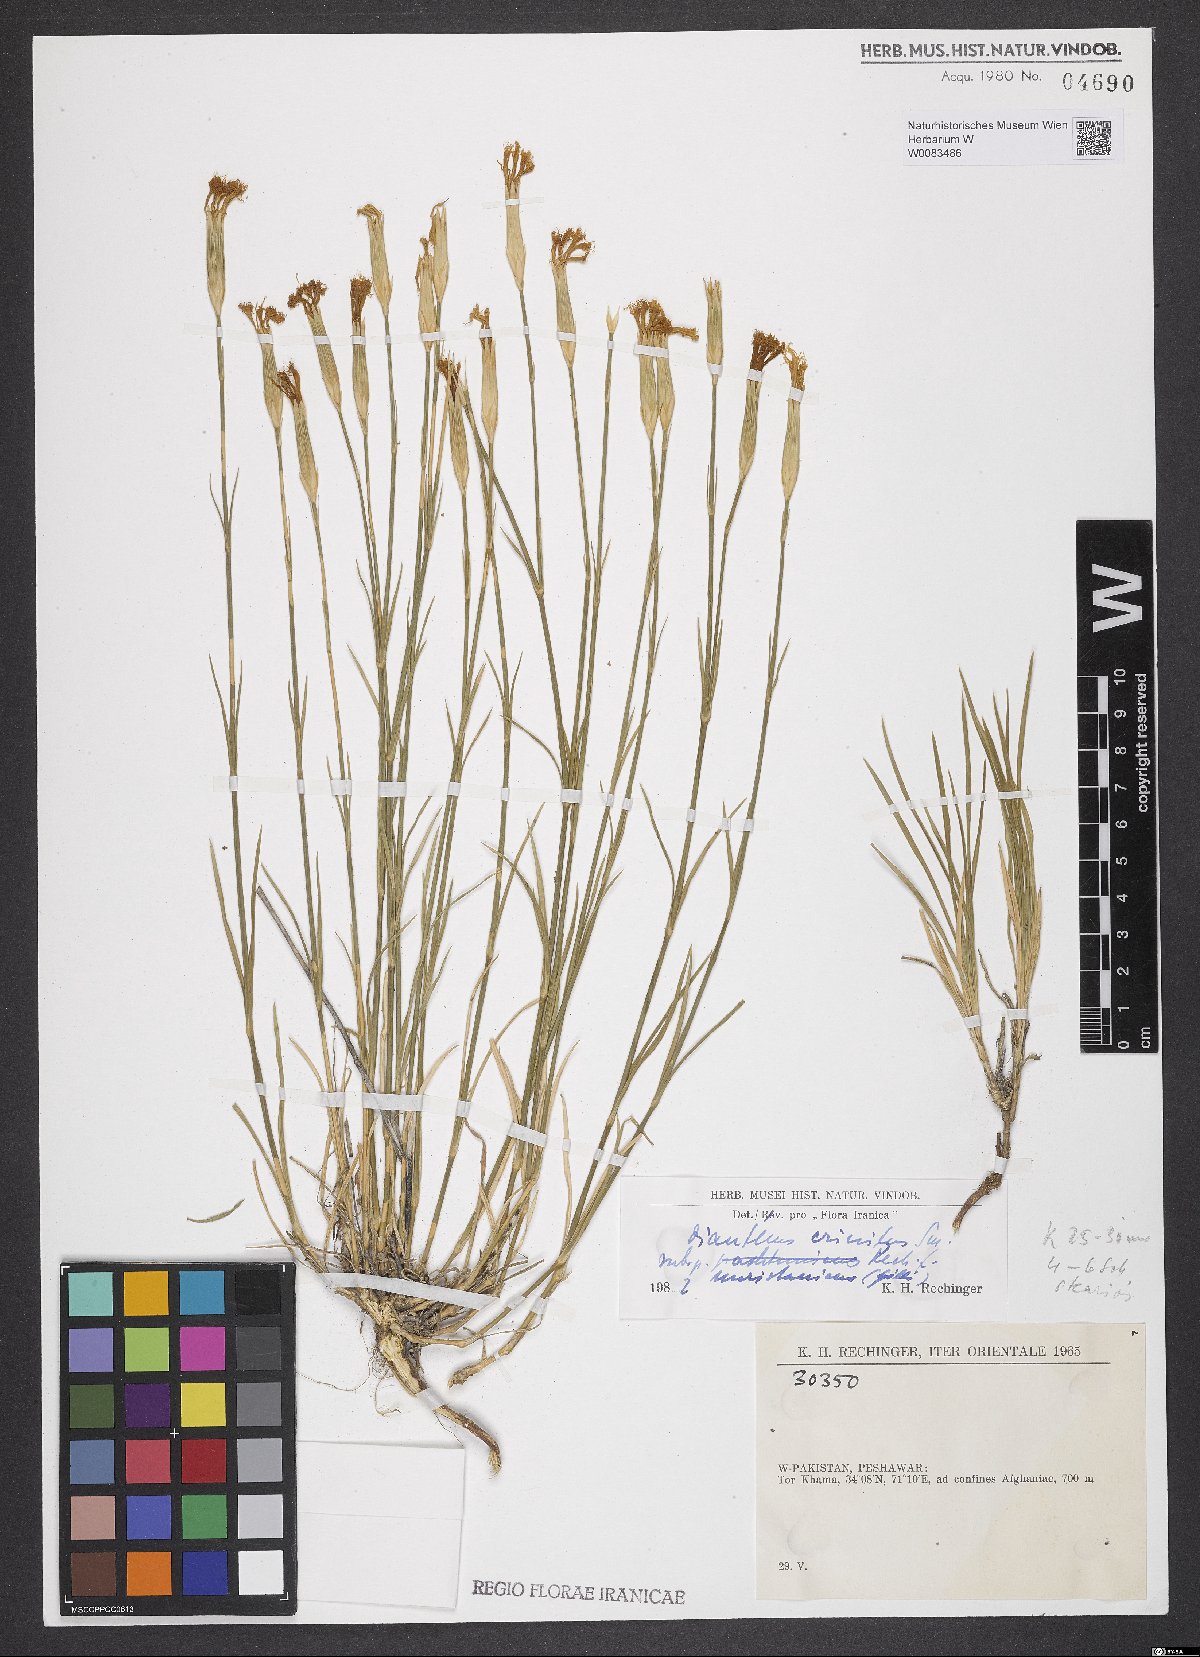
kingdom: Plantae
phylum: Tracheophyta
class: Magnoliopsida
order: Caryophyllales
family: Caryophyllaceae
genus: Dianthus
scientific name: Dianthus crinitus
